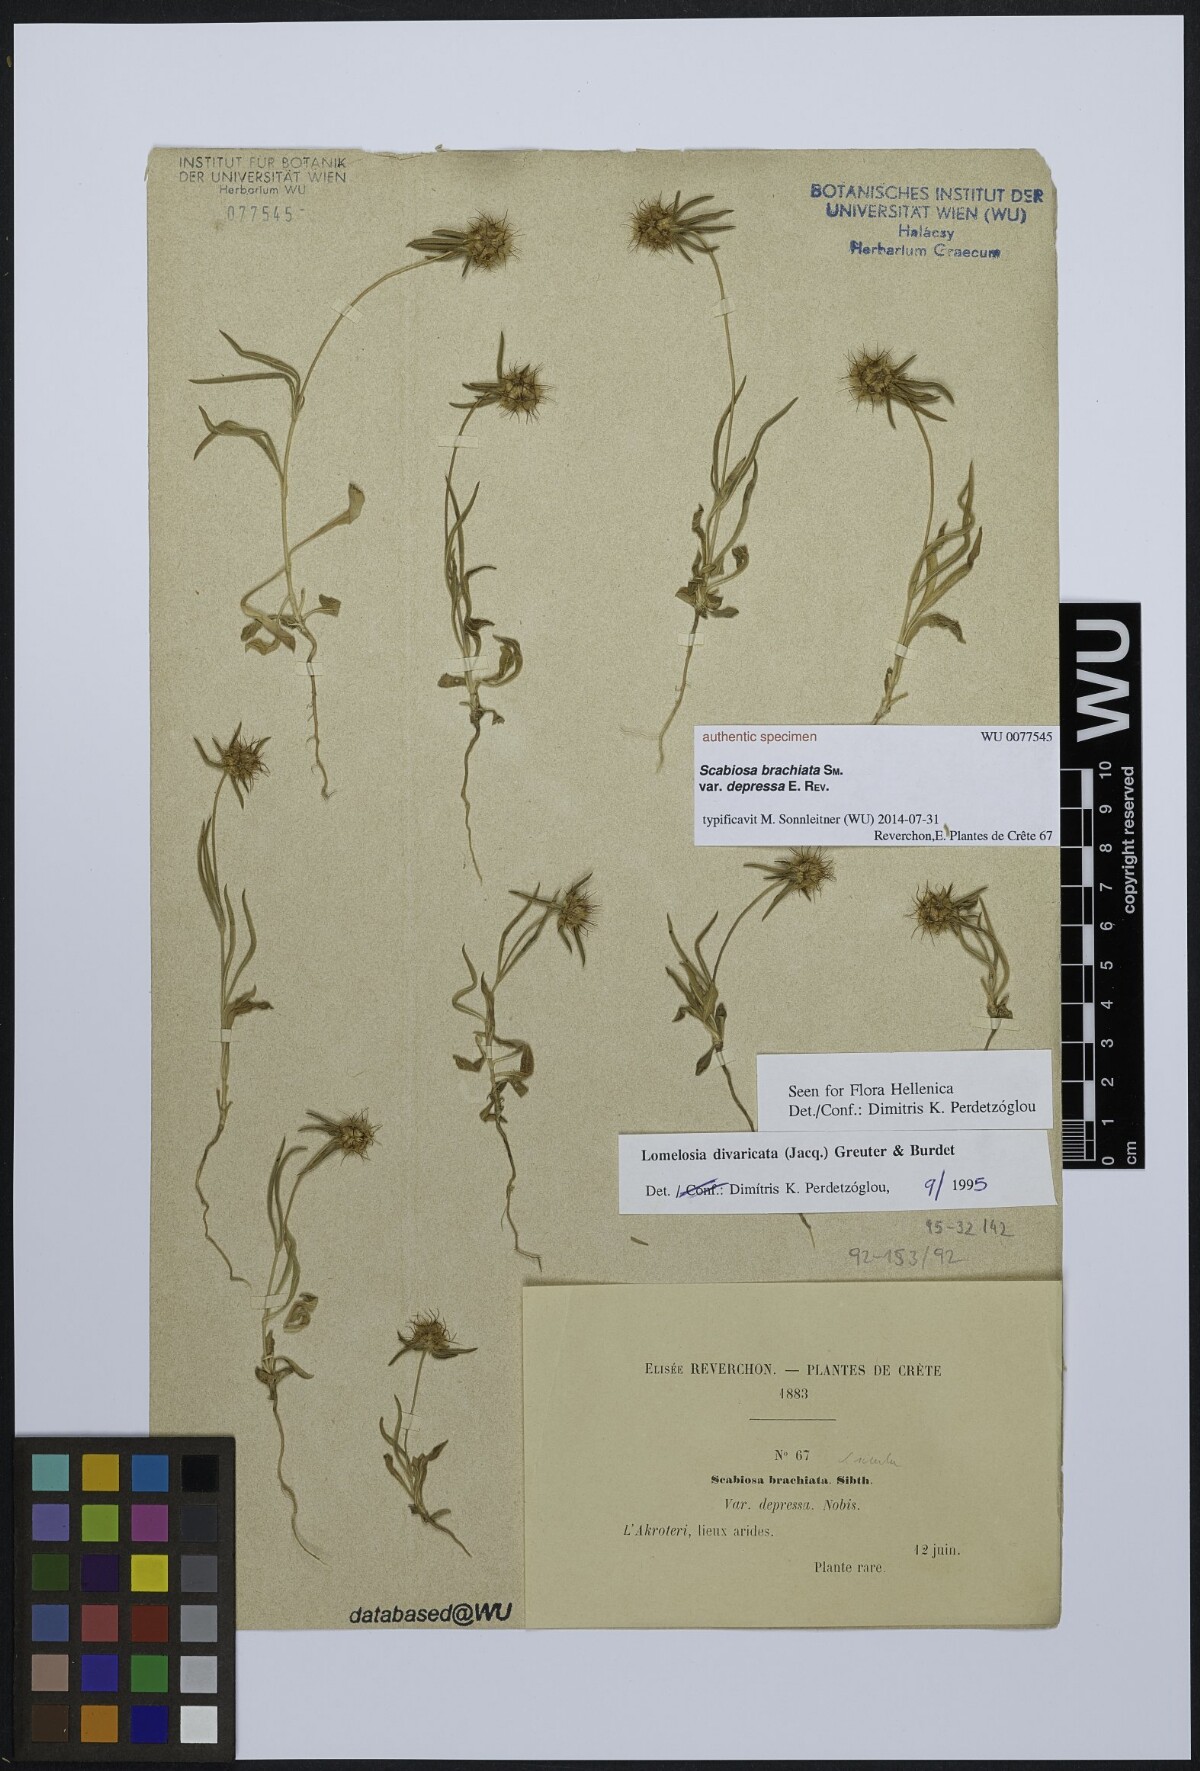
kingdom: Plantae
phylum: Tracheophyta
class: Magnoliopsida
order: Dipsacales
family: Caprifoliaceae
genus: Lomelosia
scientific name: Lomelosia brachiata
